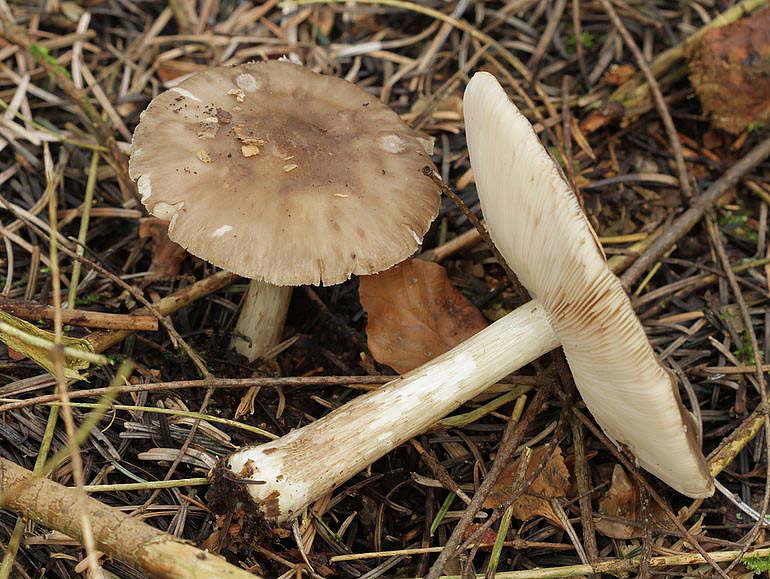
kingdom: Fungi
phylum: Basidiomycota
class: Agaricomycetes
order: Agaricales
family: Pluteaceae
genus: Pluteus
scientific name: Pluteus primus
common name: tidlig skærmhat
